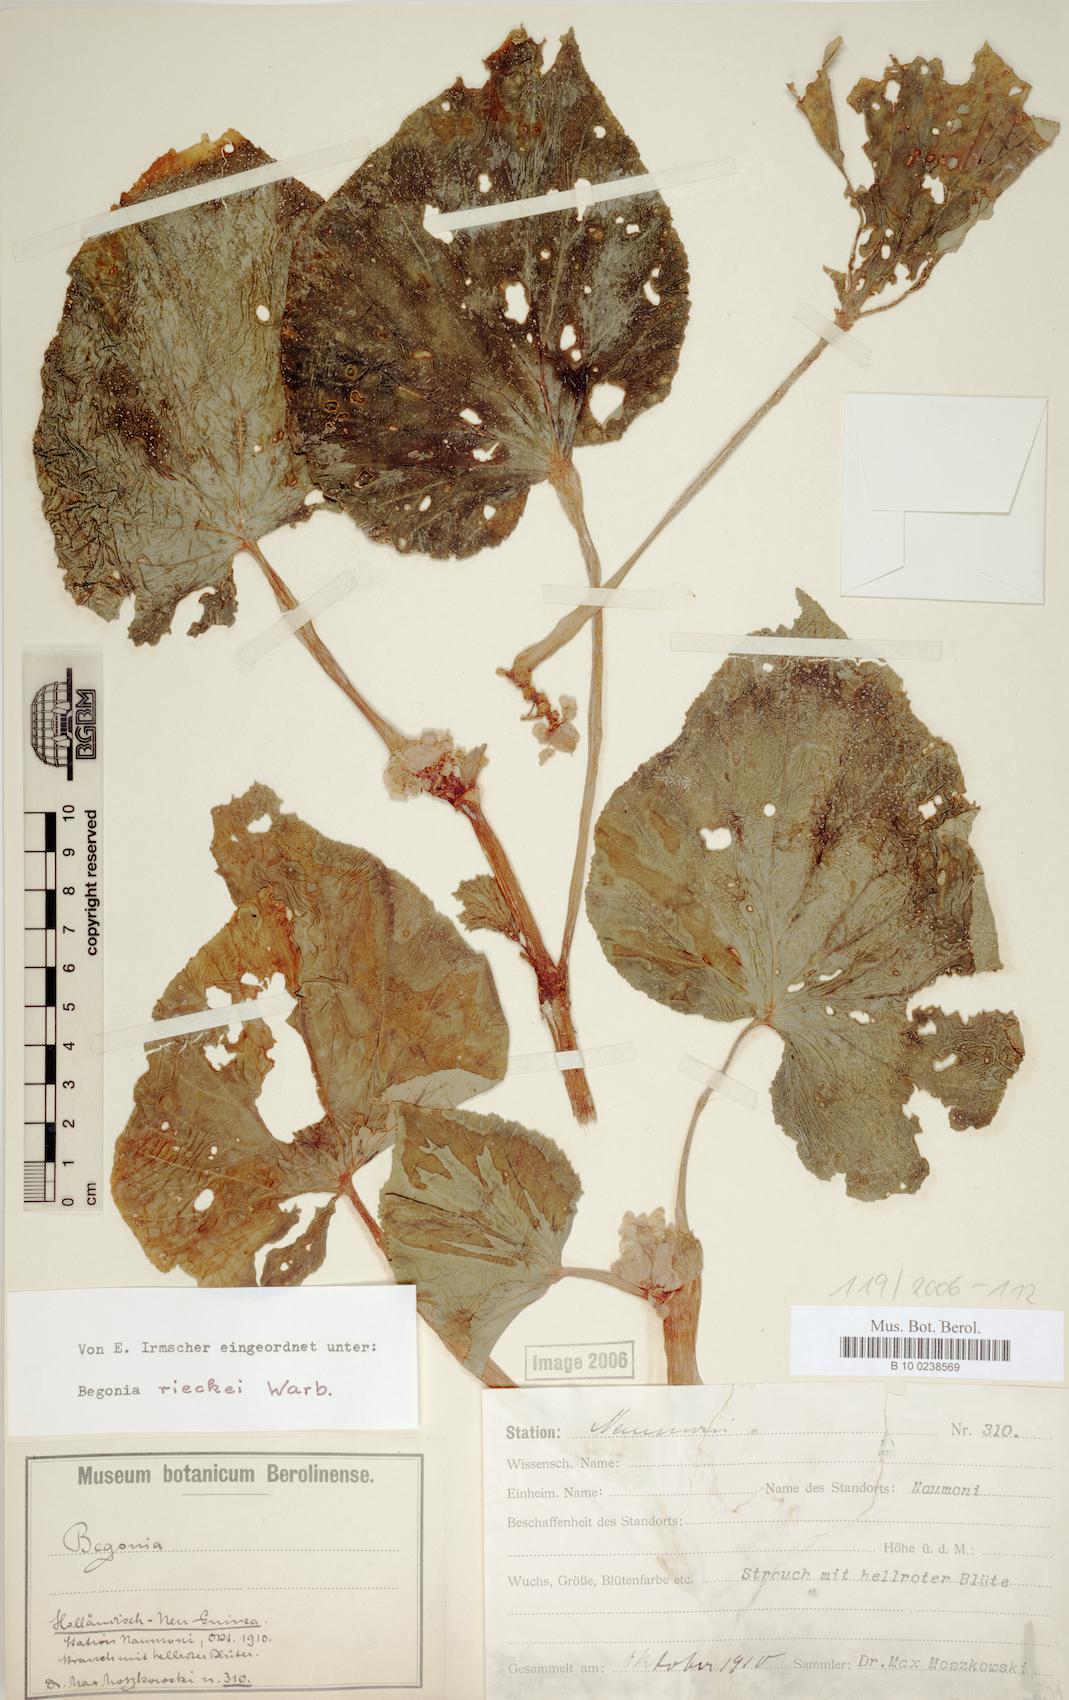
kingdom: Plantae
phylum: Tracheophyta
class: Magnoliopsida
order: Cucurbitales
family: Begoniaceae
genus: Begonia
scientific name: Begonia rieckei
